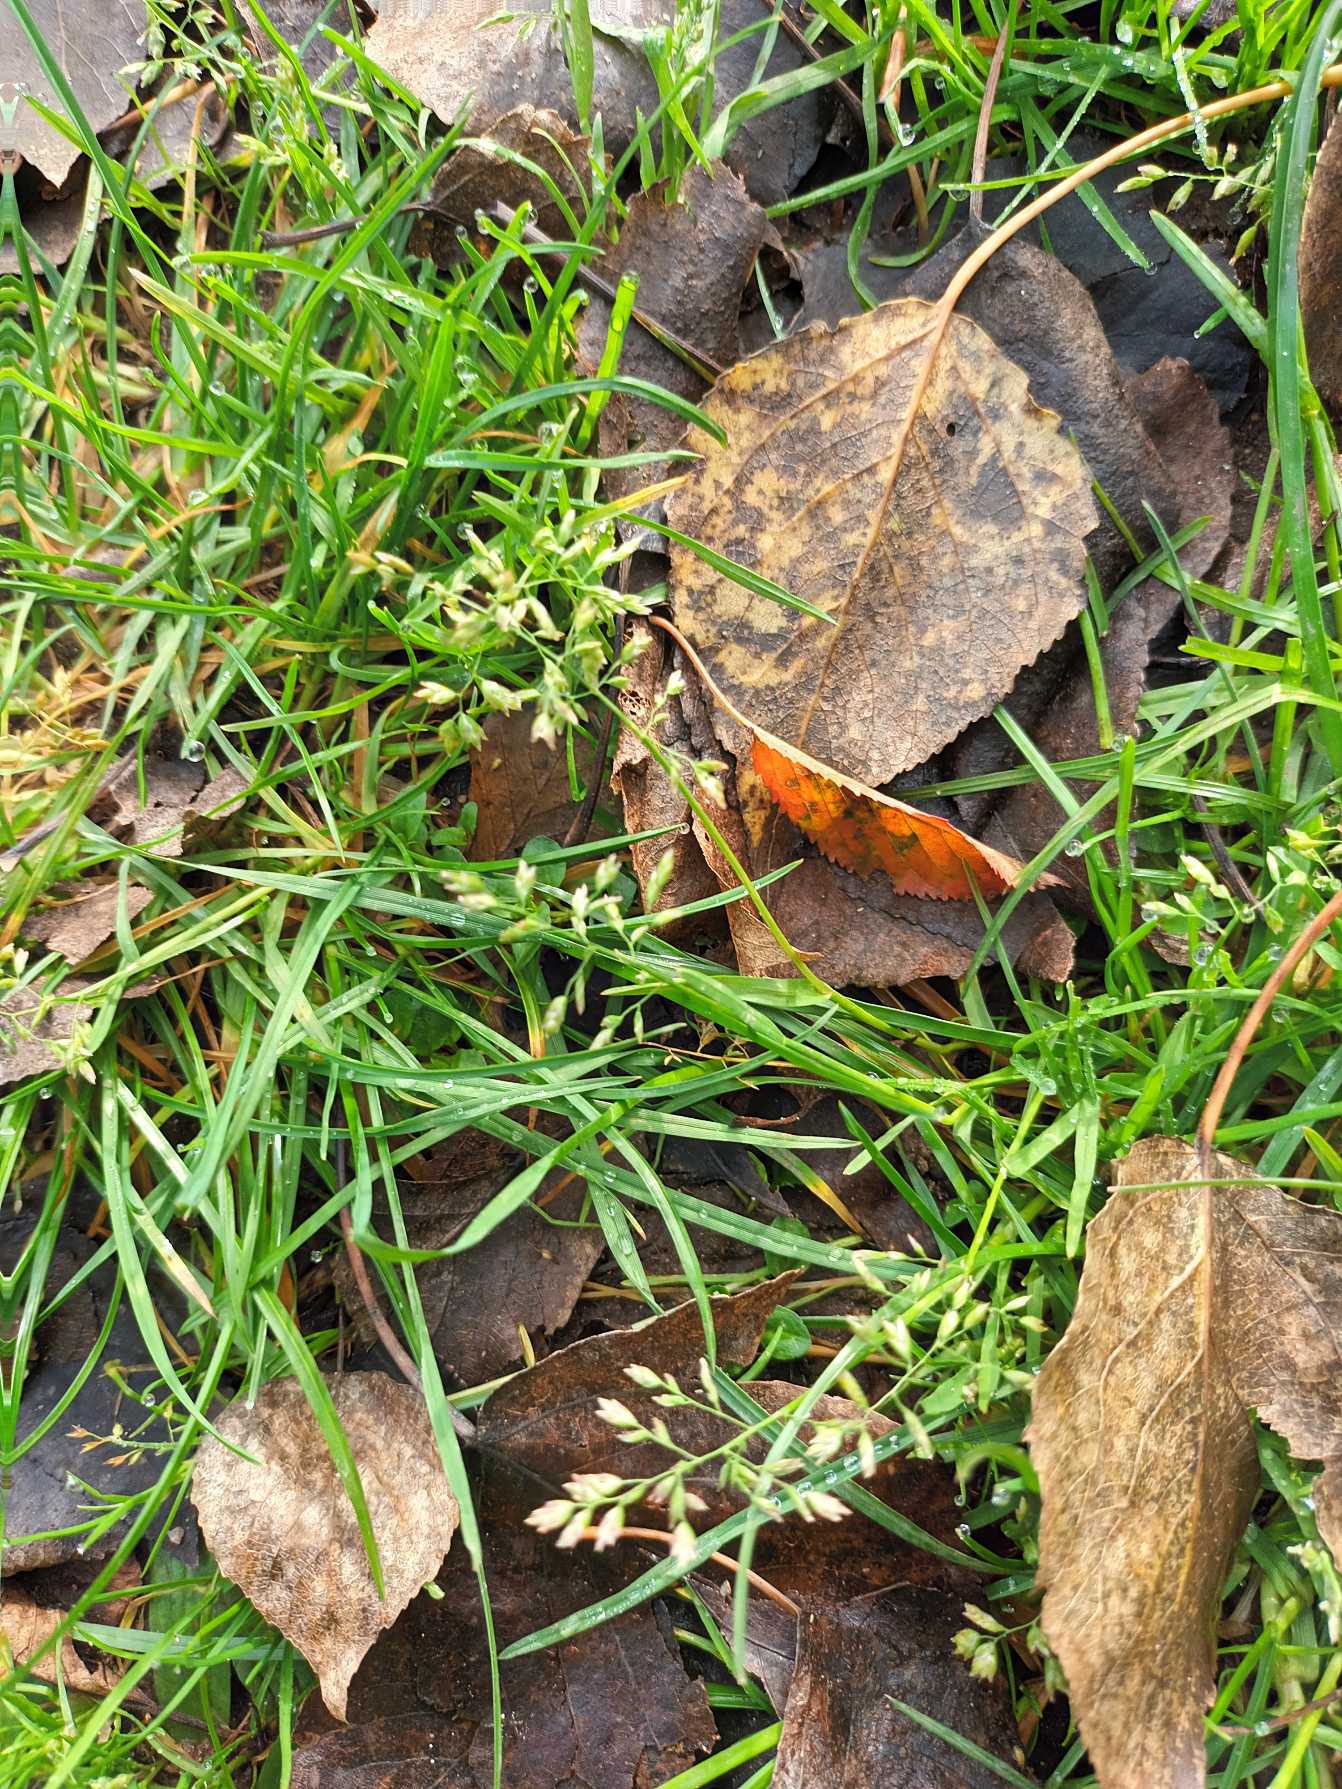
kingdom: Plantae
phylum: Tracheophyta
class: Liliopsida
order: Poales
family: Poaceae
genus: Poa
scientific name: Poa annua
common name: Enårig rapgræs
